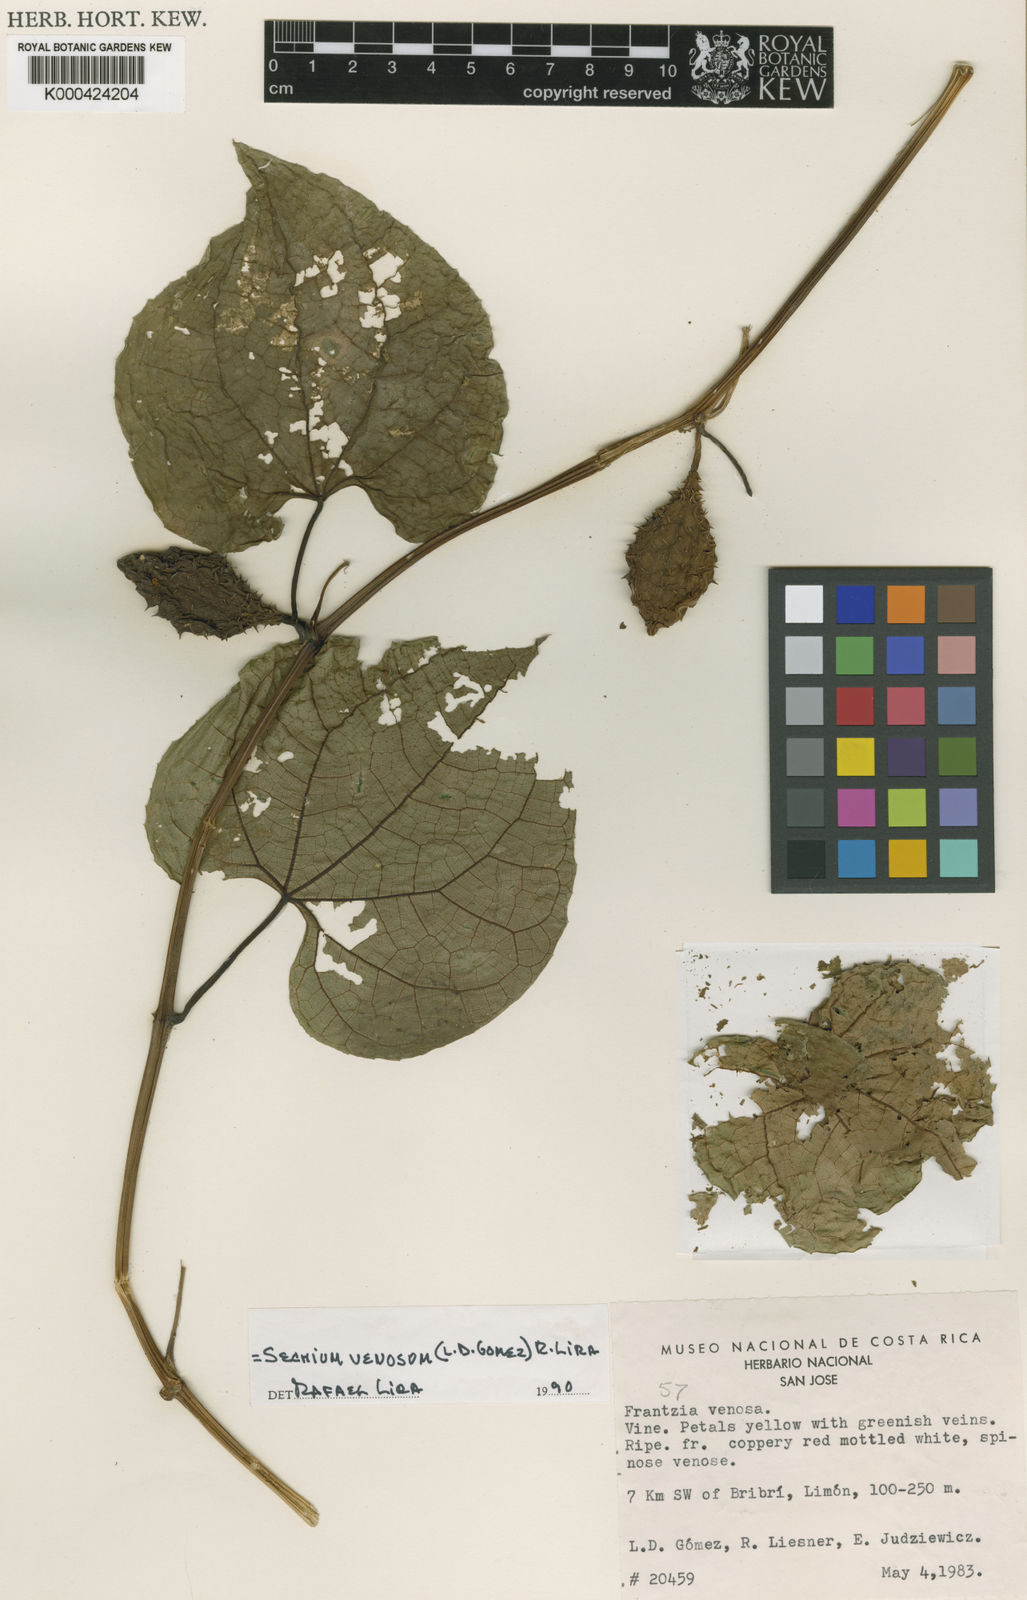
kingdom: Plantae
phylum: Tracheophyta
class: Magnoliopsida
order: Cucurbitales
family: Cucurbitaceae
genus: Sechium
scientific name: Sechium
